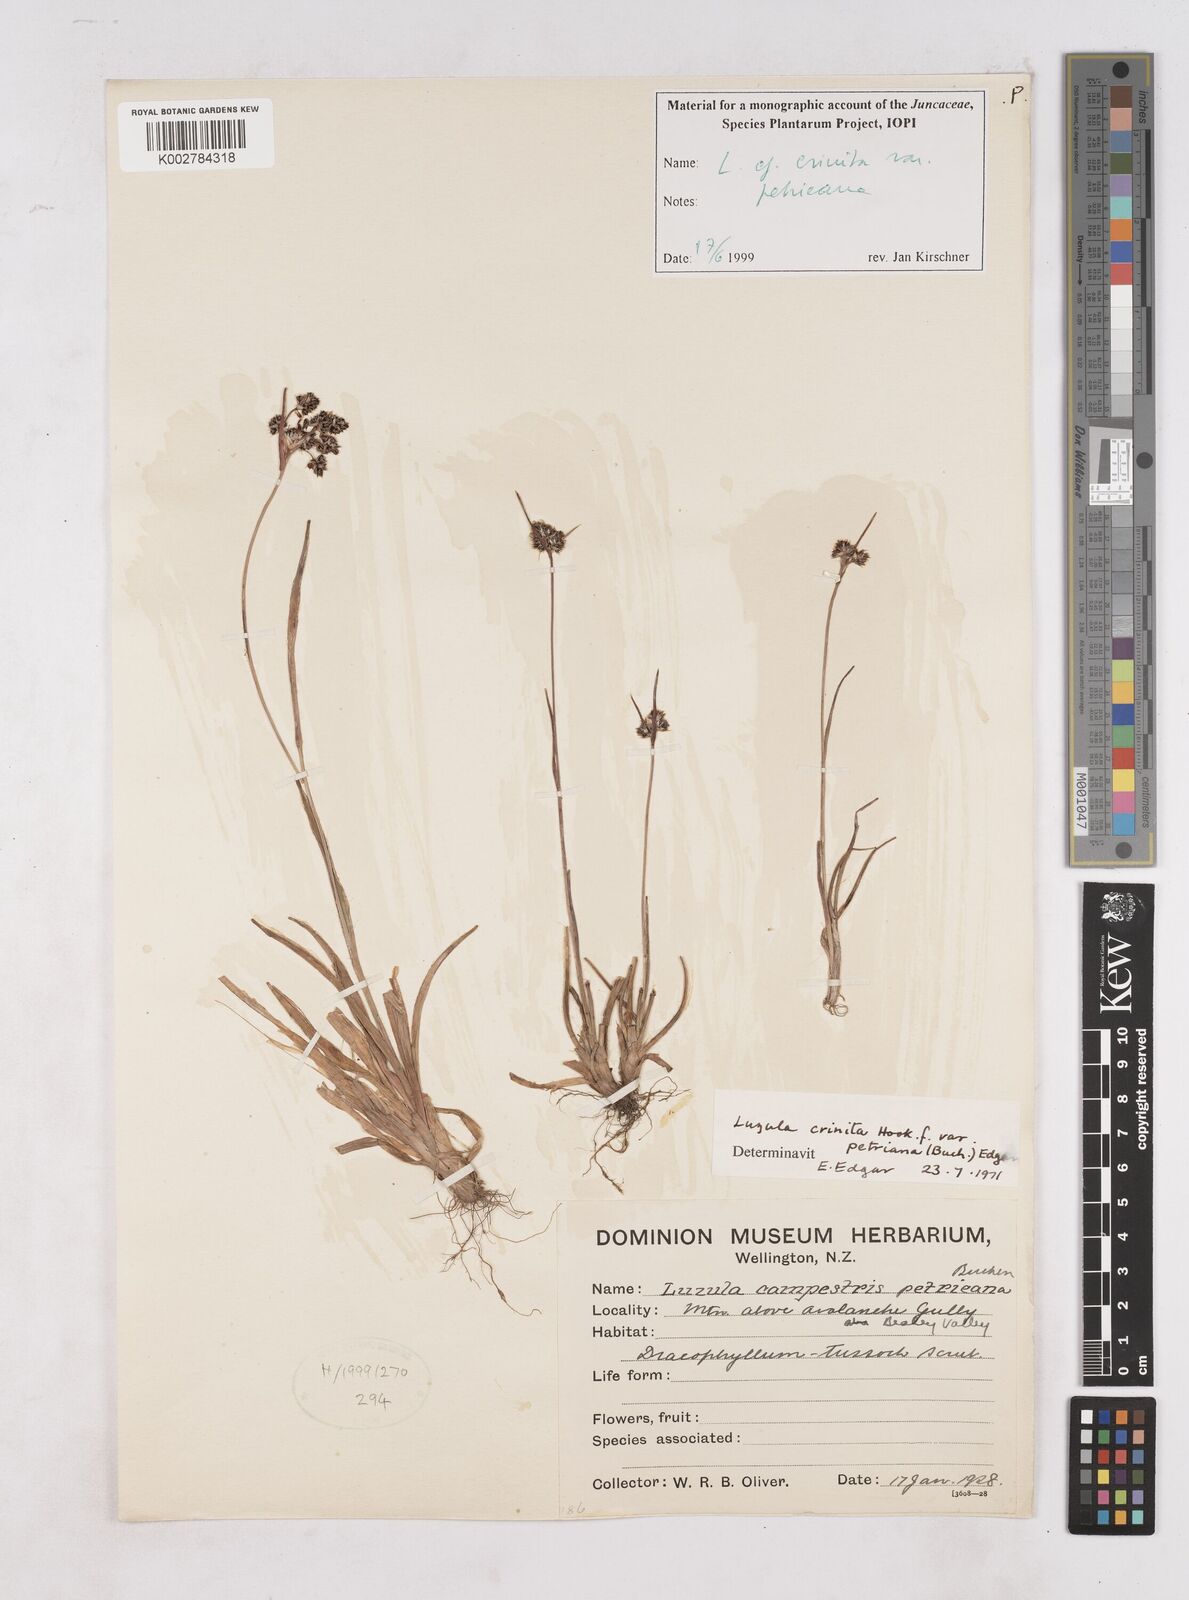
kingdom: Plantae
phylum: Tracheophyta
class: Liliopsida
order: Poales
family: Juncaceae
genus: Luzula
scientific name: Luzula crenulata
